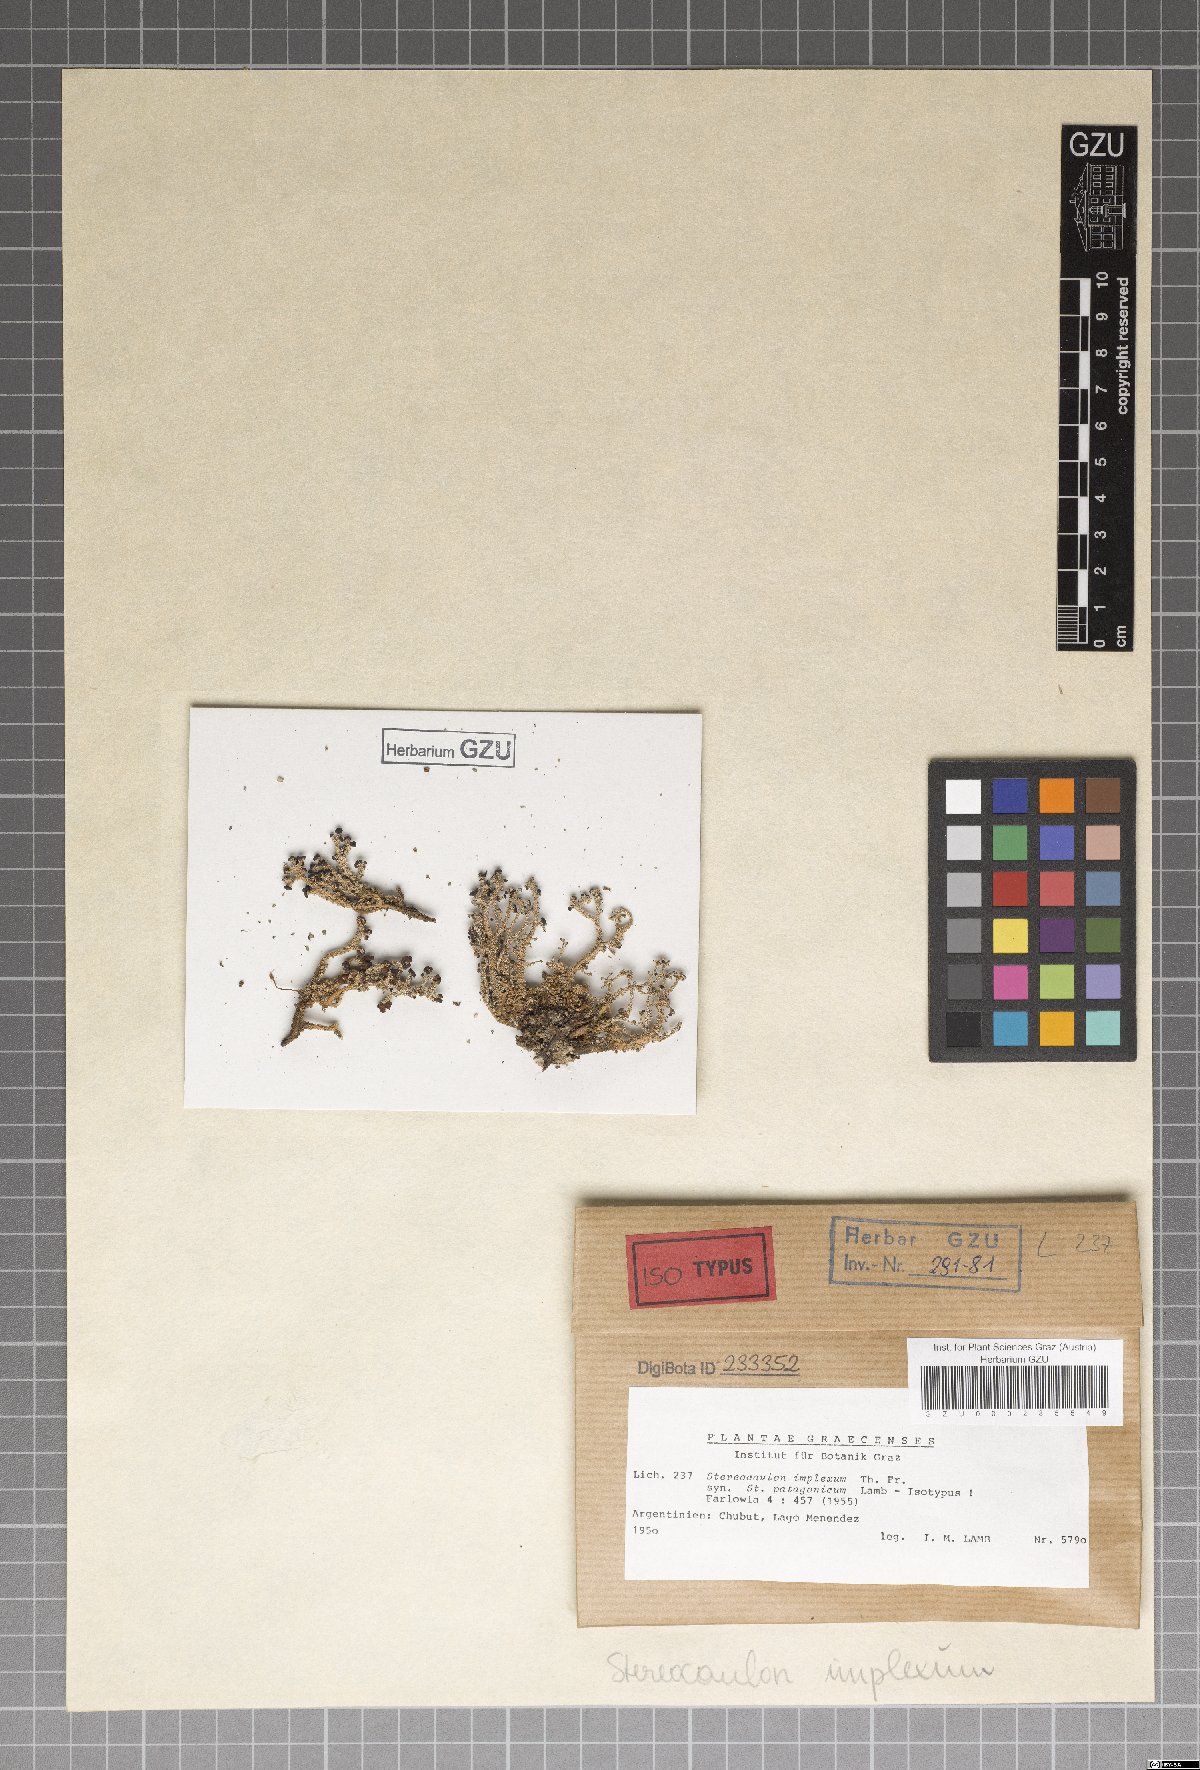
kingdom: Fungi
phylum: Ascomycota
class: Lecanoromycetes
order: Lecanorales
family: Stereocaulaceae
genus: Stereocaulon
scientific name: Stereocaulon implexum
